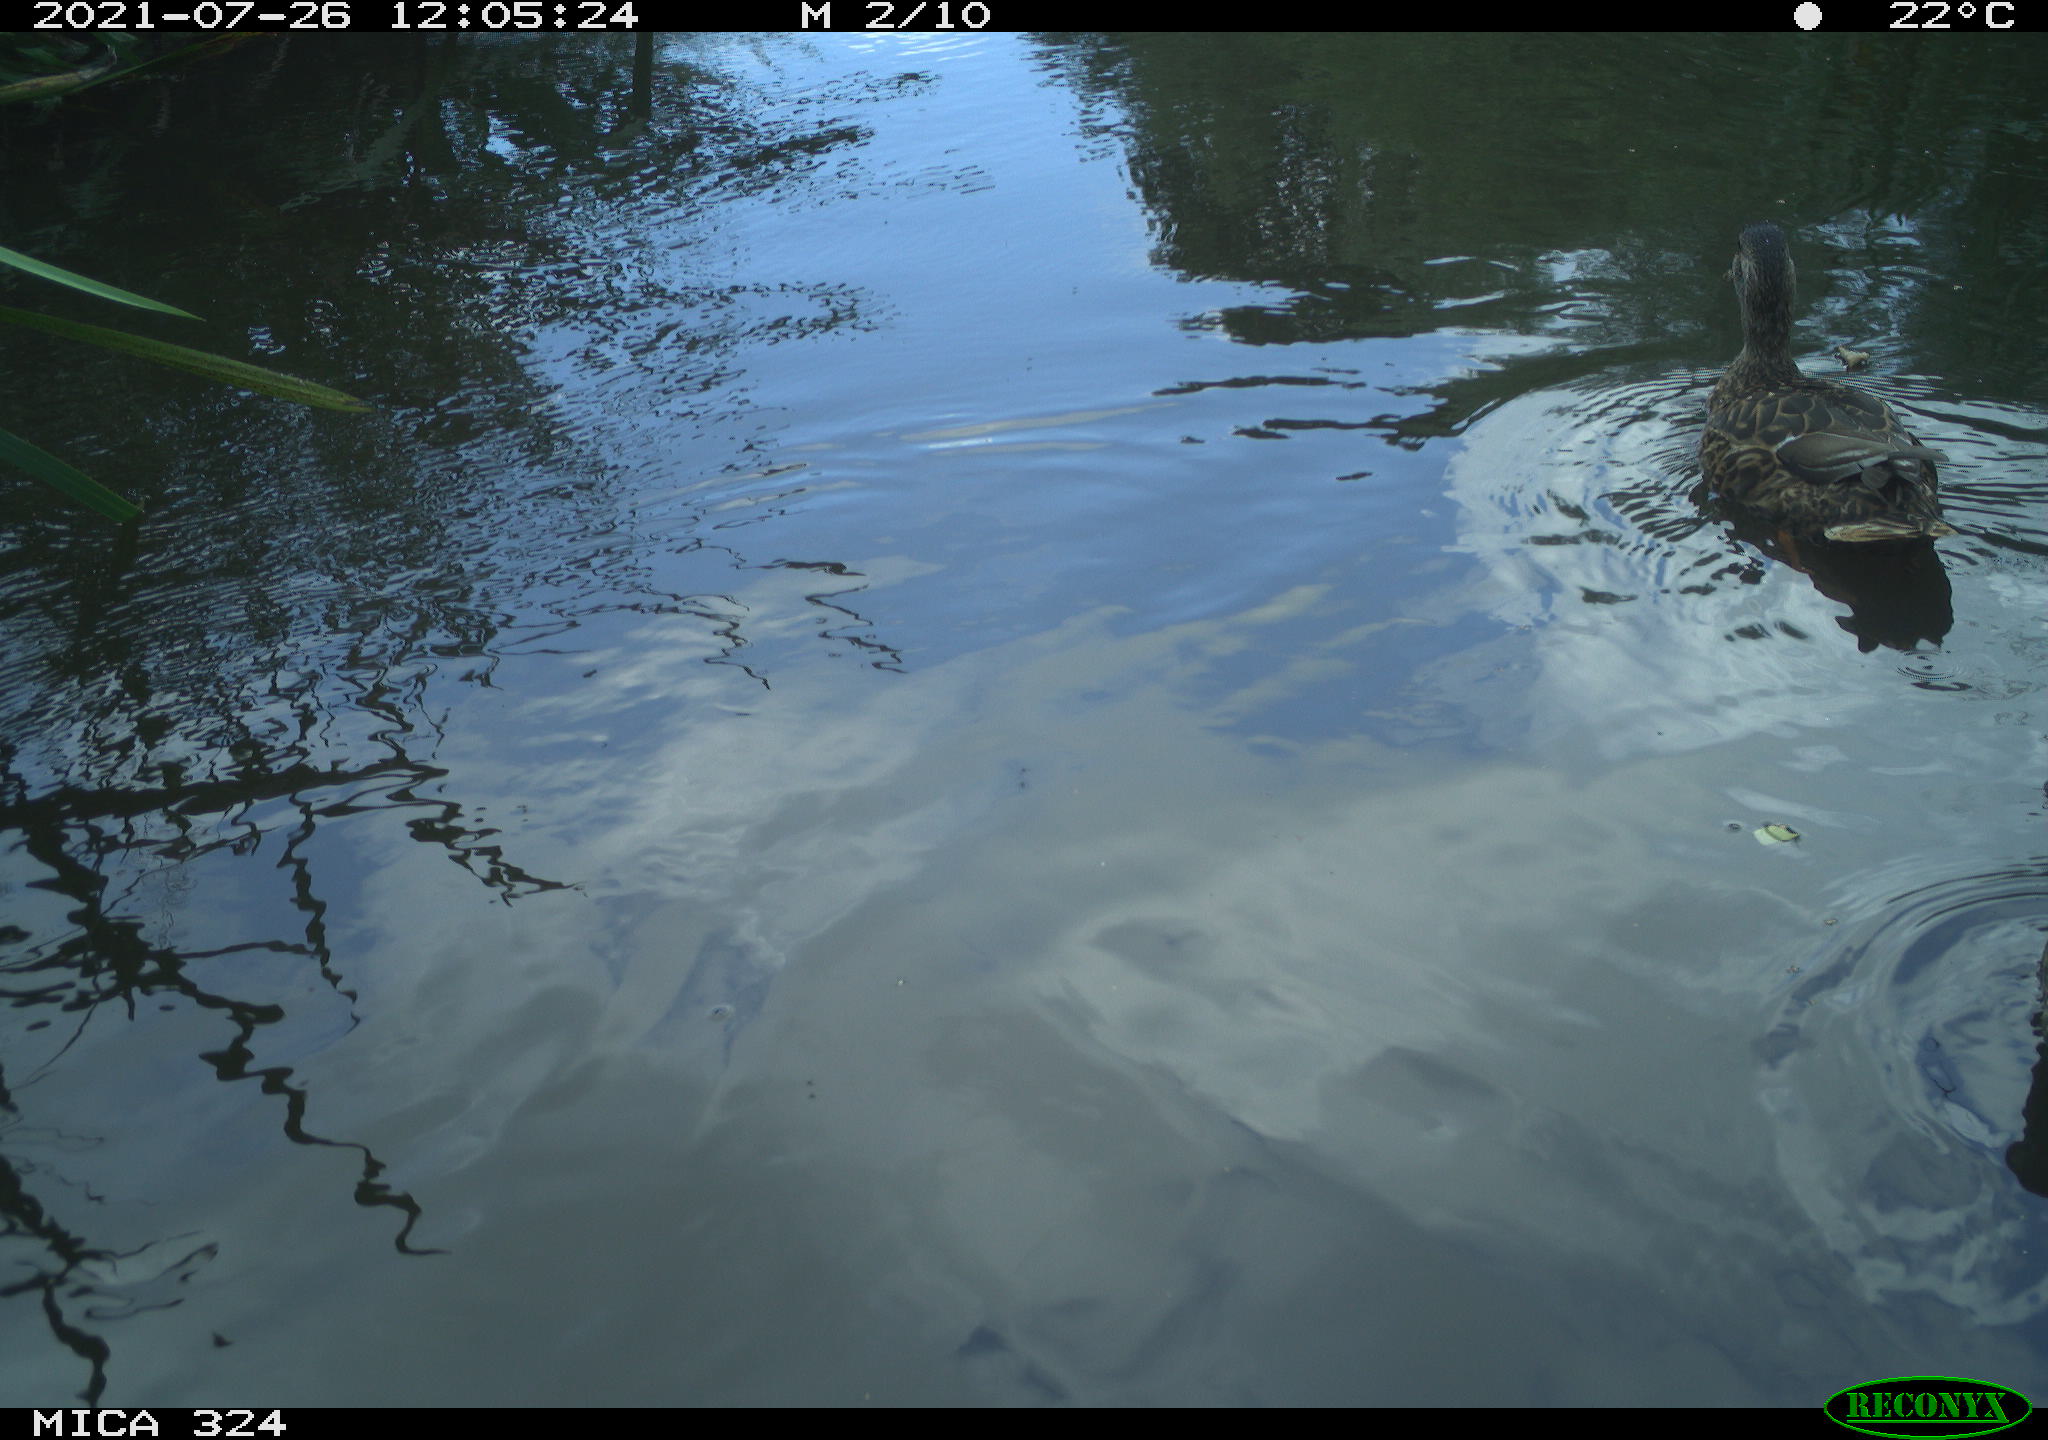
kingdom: Animalia
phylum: Chordata
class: Aves
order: Anseriformes
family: Anatidae
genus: Anas
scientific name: Anas platyrhynchos
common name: Mallard
